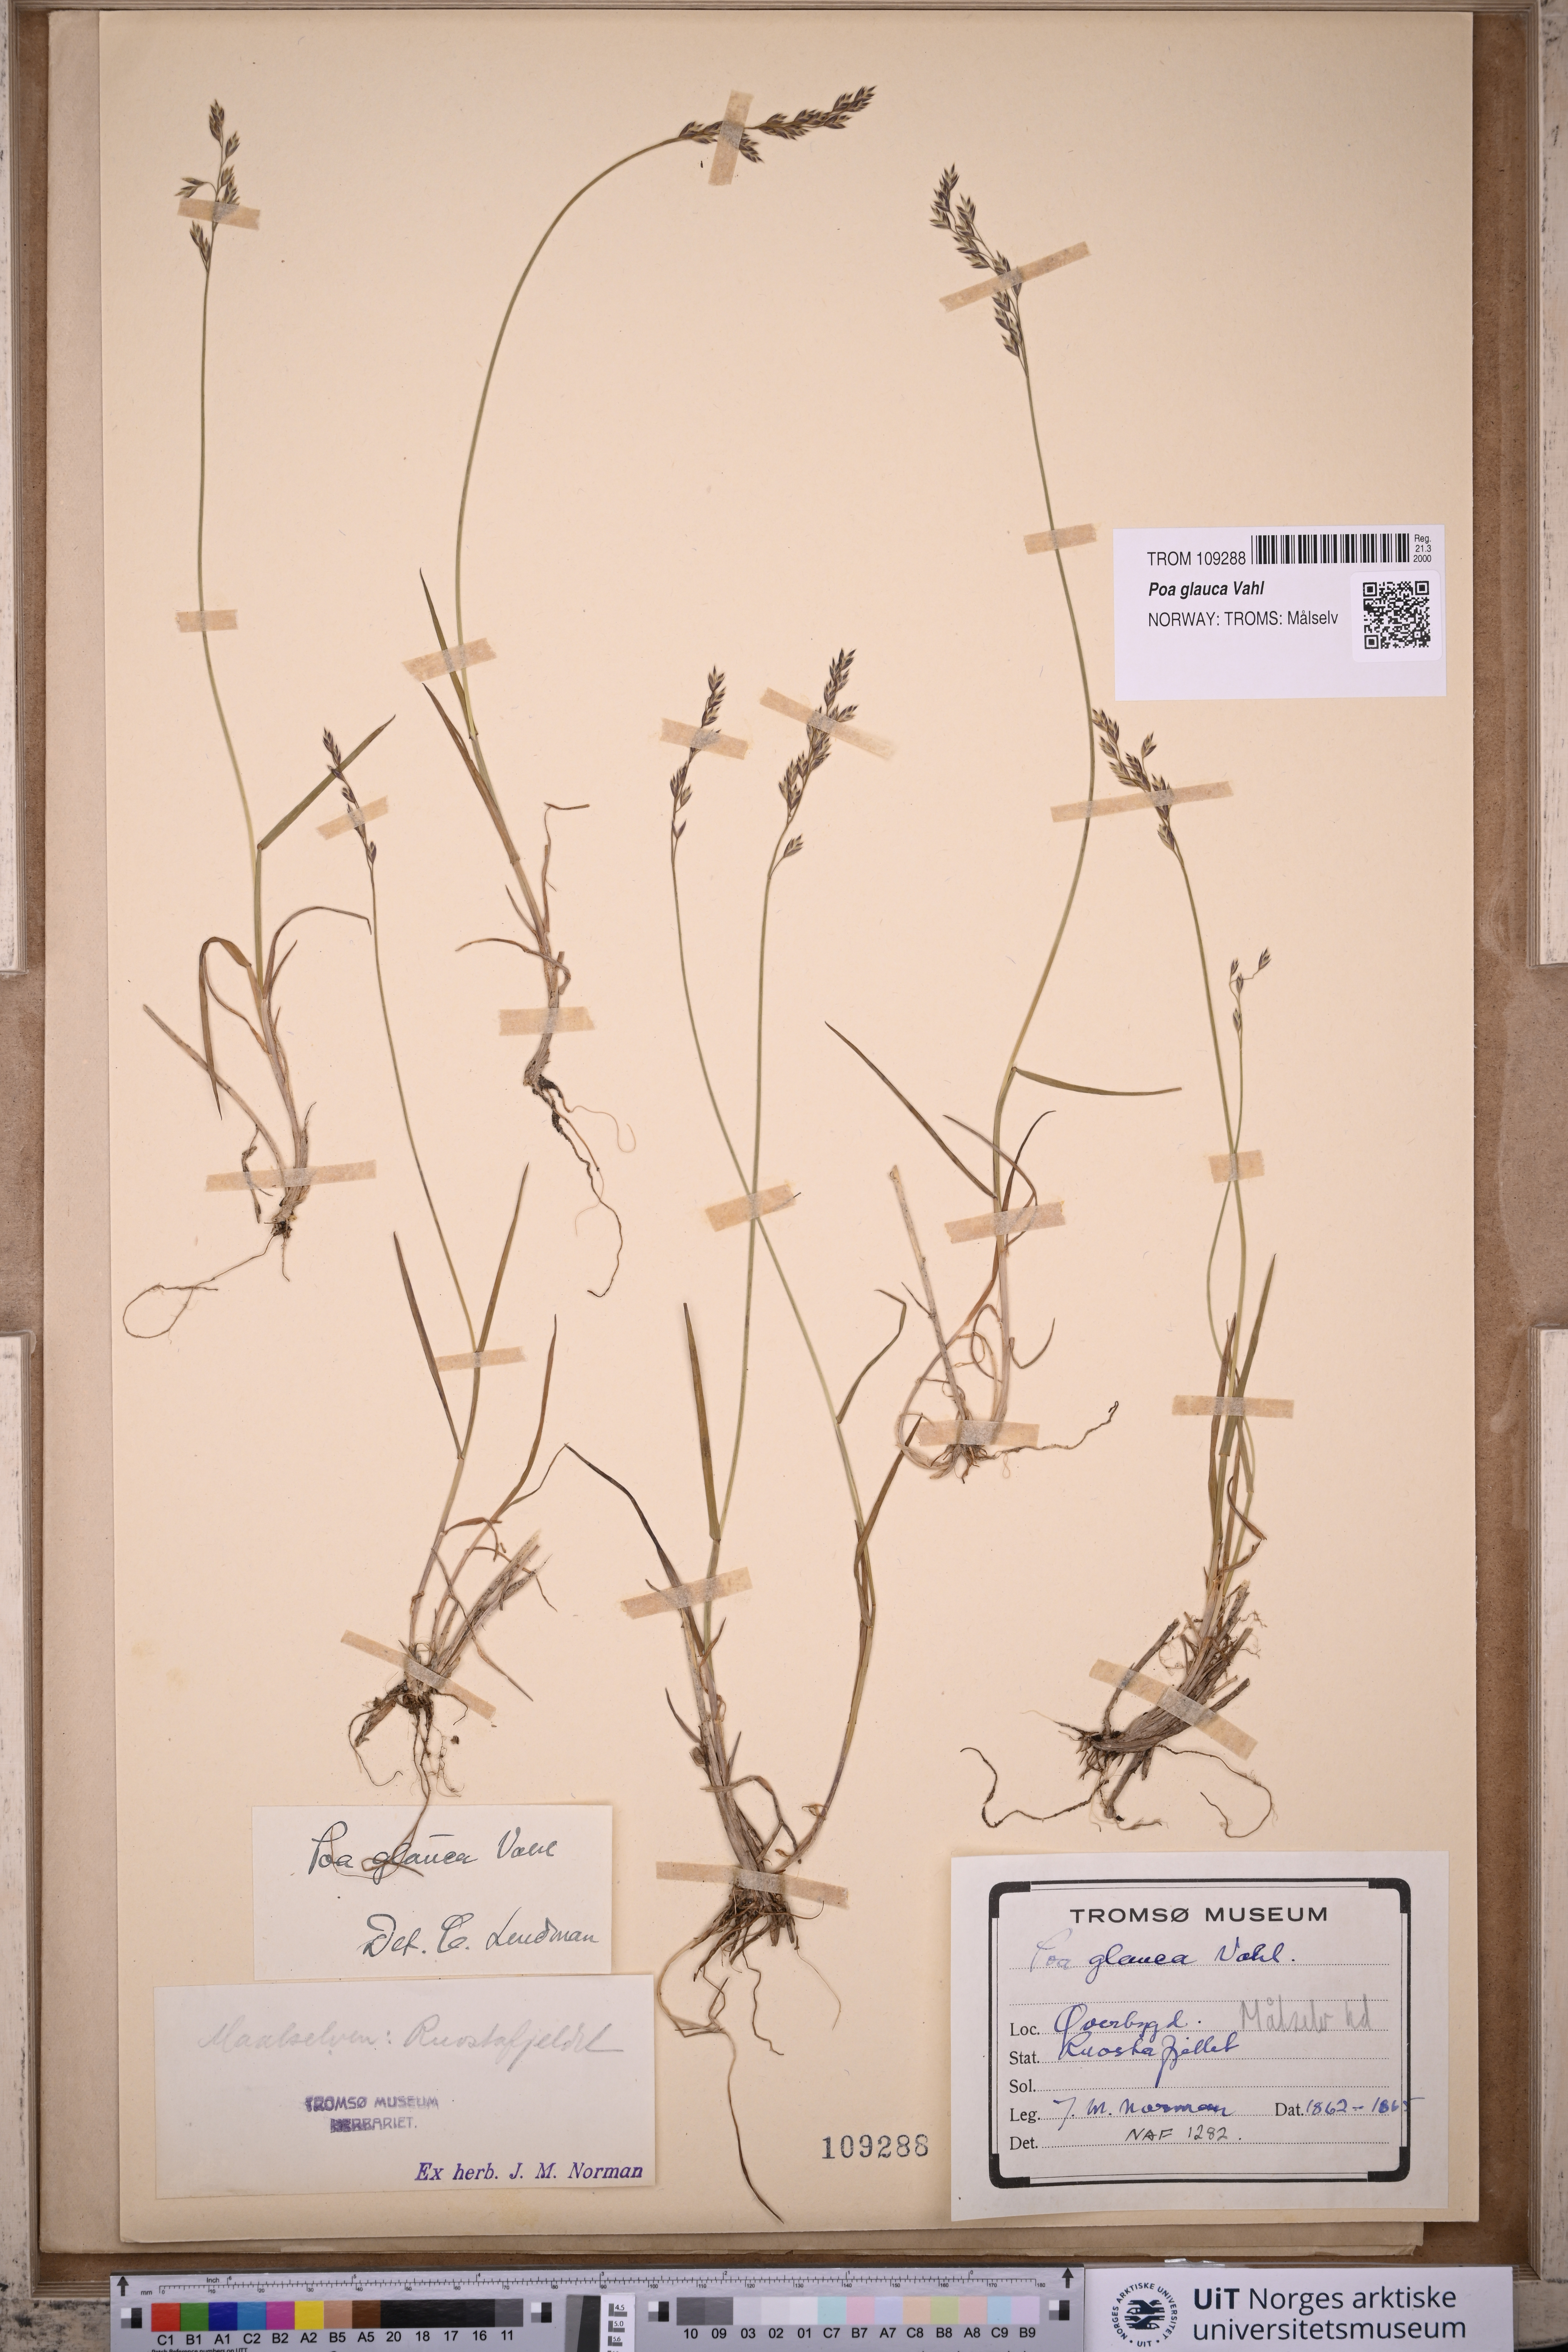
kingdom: Plantae
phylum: Tracheophyta
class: Liliopsida
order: Poales
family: Poaceae
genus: Poa
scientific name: Poa glauca
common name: Glaucous bluegrass
